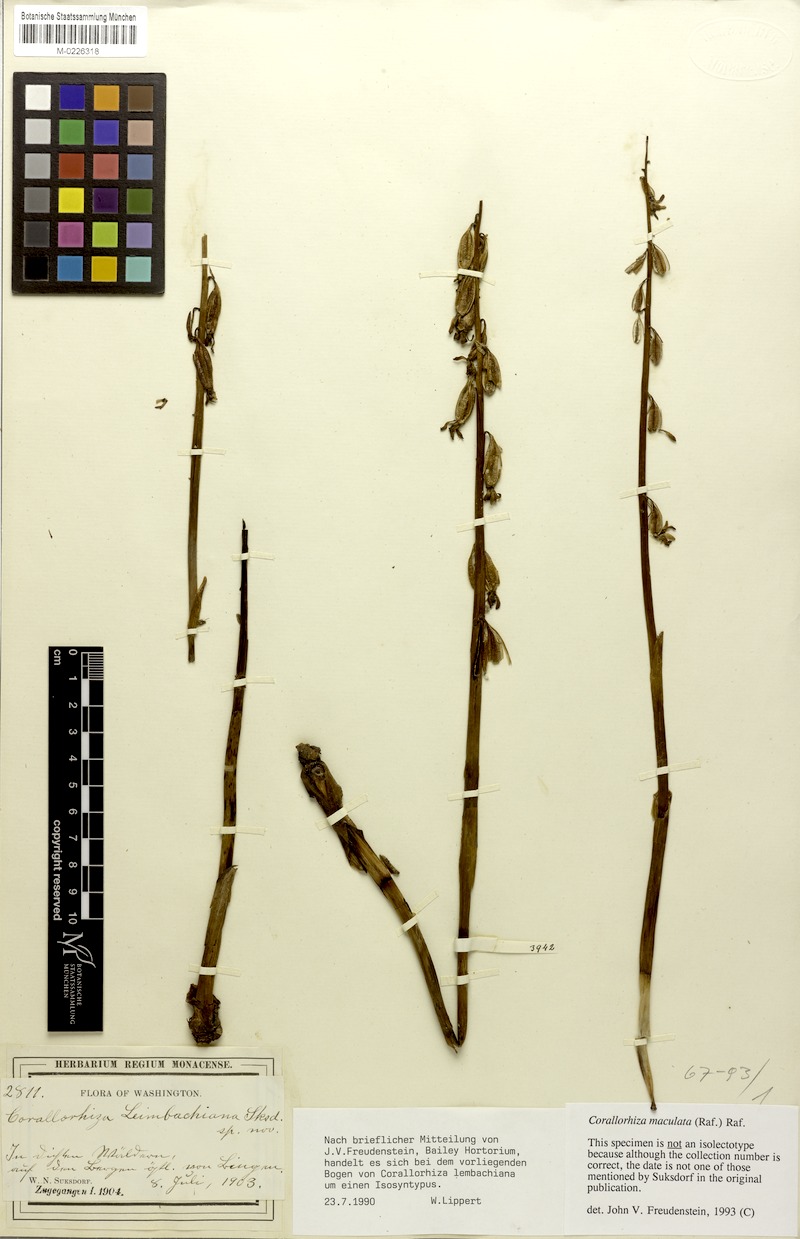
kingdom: Plantae
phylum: Tracheophyta
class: Liliopsida
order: Asparagales
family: Orchidaceae
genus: Corallorhiza
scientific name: Corallorhiza maculata
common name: Spotted coralroot
